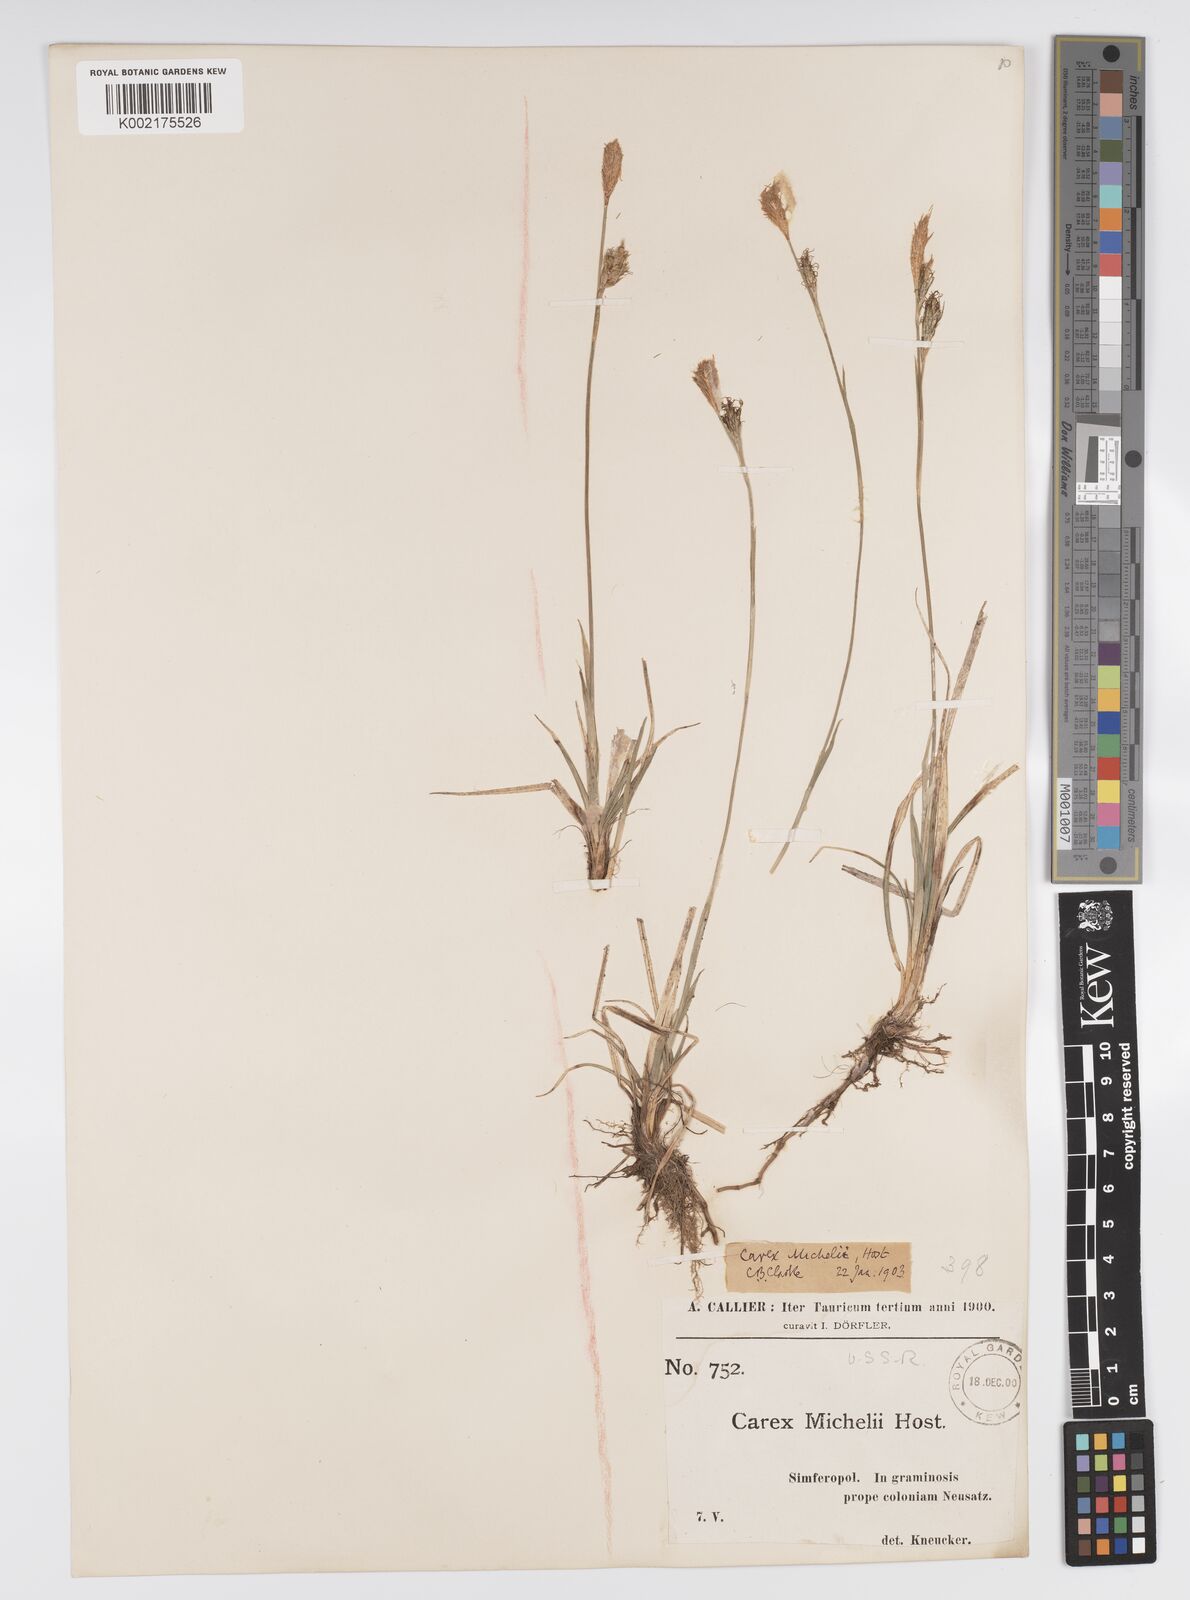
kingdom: Plantae
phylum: Tracheophyta
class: Liliopsida
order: Poales
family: Cyperaceae
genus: Carex
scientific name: Carex michelii
